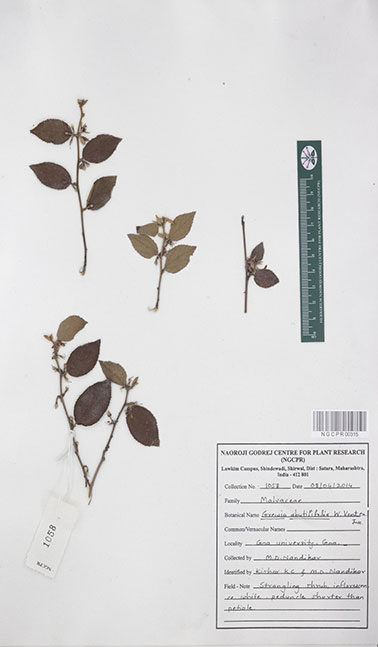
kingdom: Plantae
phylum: Tracheophyta
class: Magnoliopsida
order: Malvales
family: Malvaceae
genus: Grewia
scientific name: Grewia abutilifolia
